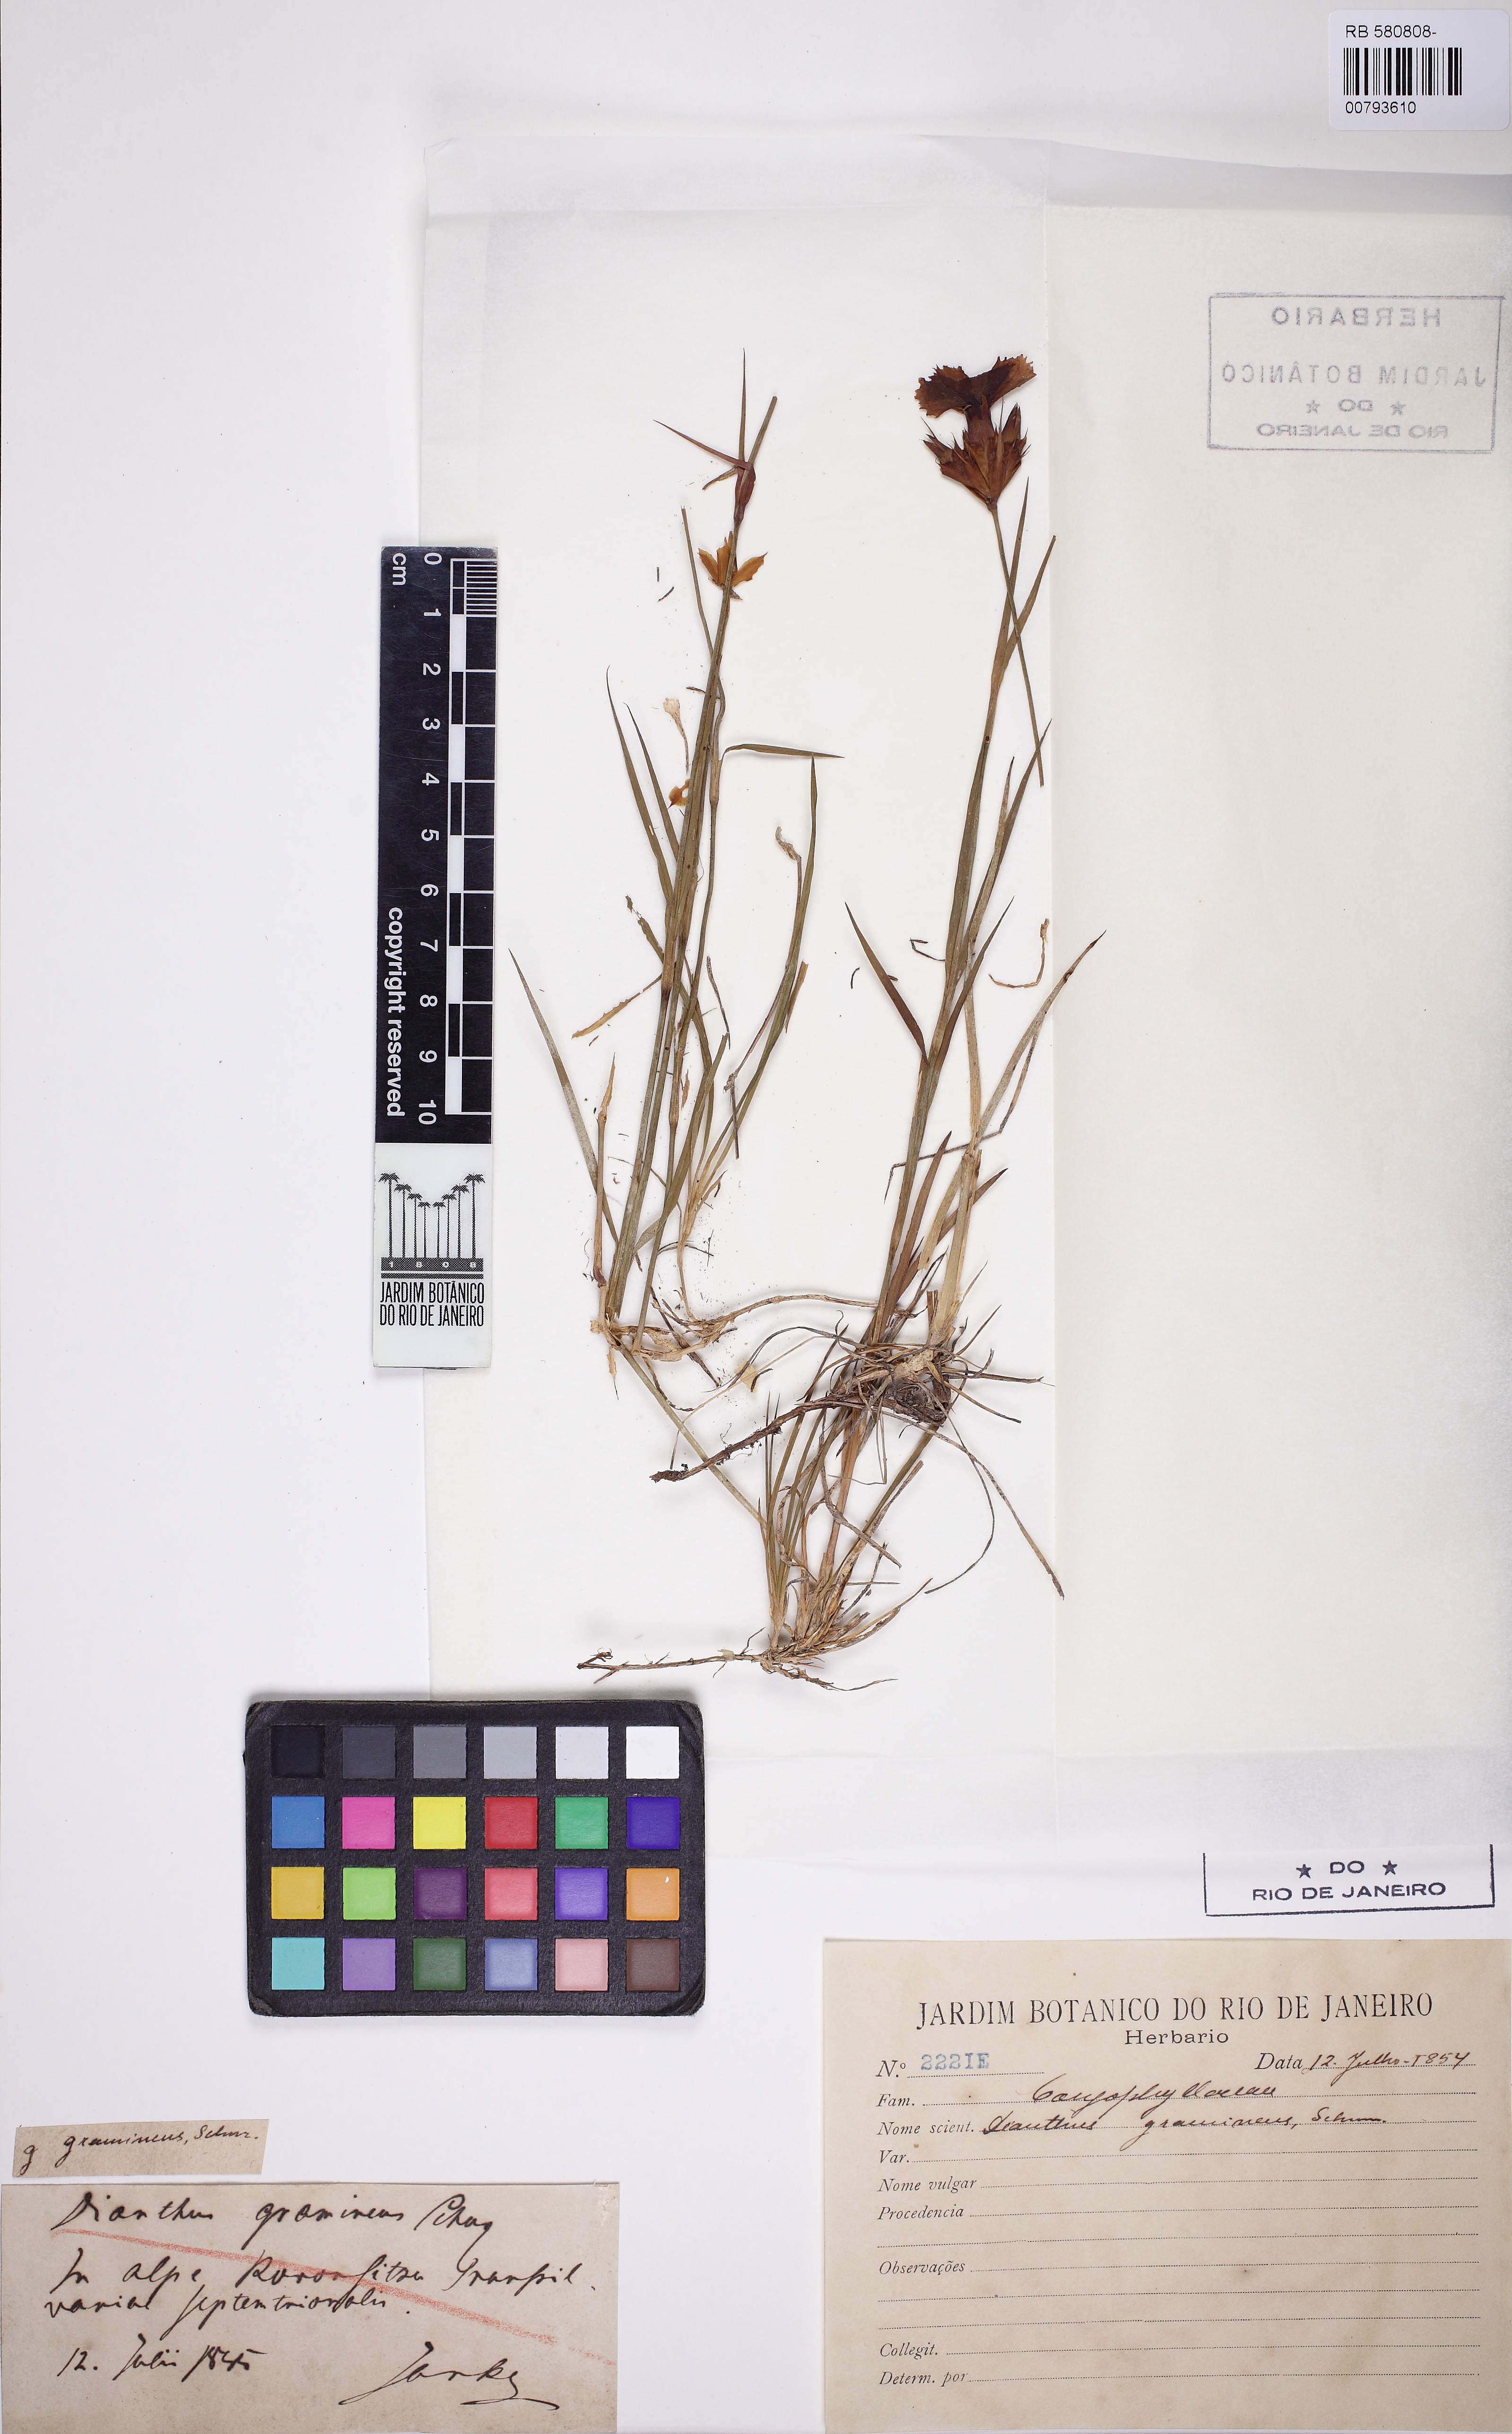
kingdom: Plantae
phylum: Tracheophyta
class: Magnoliopsida
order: Caryophyllales
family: Caryophyllaceae
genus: Dianthus
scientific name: Dianthus carthusianorum
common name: Carthusian pink
